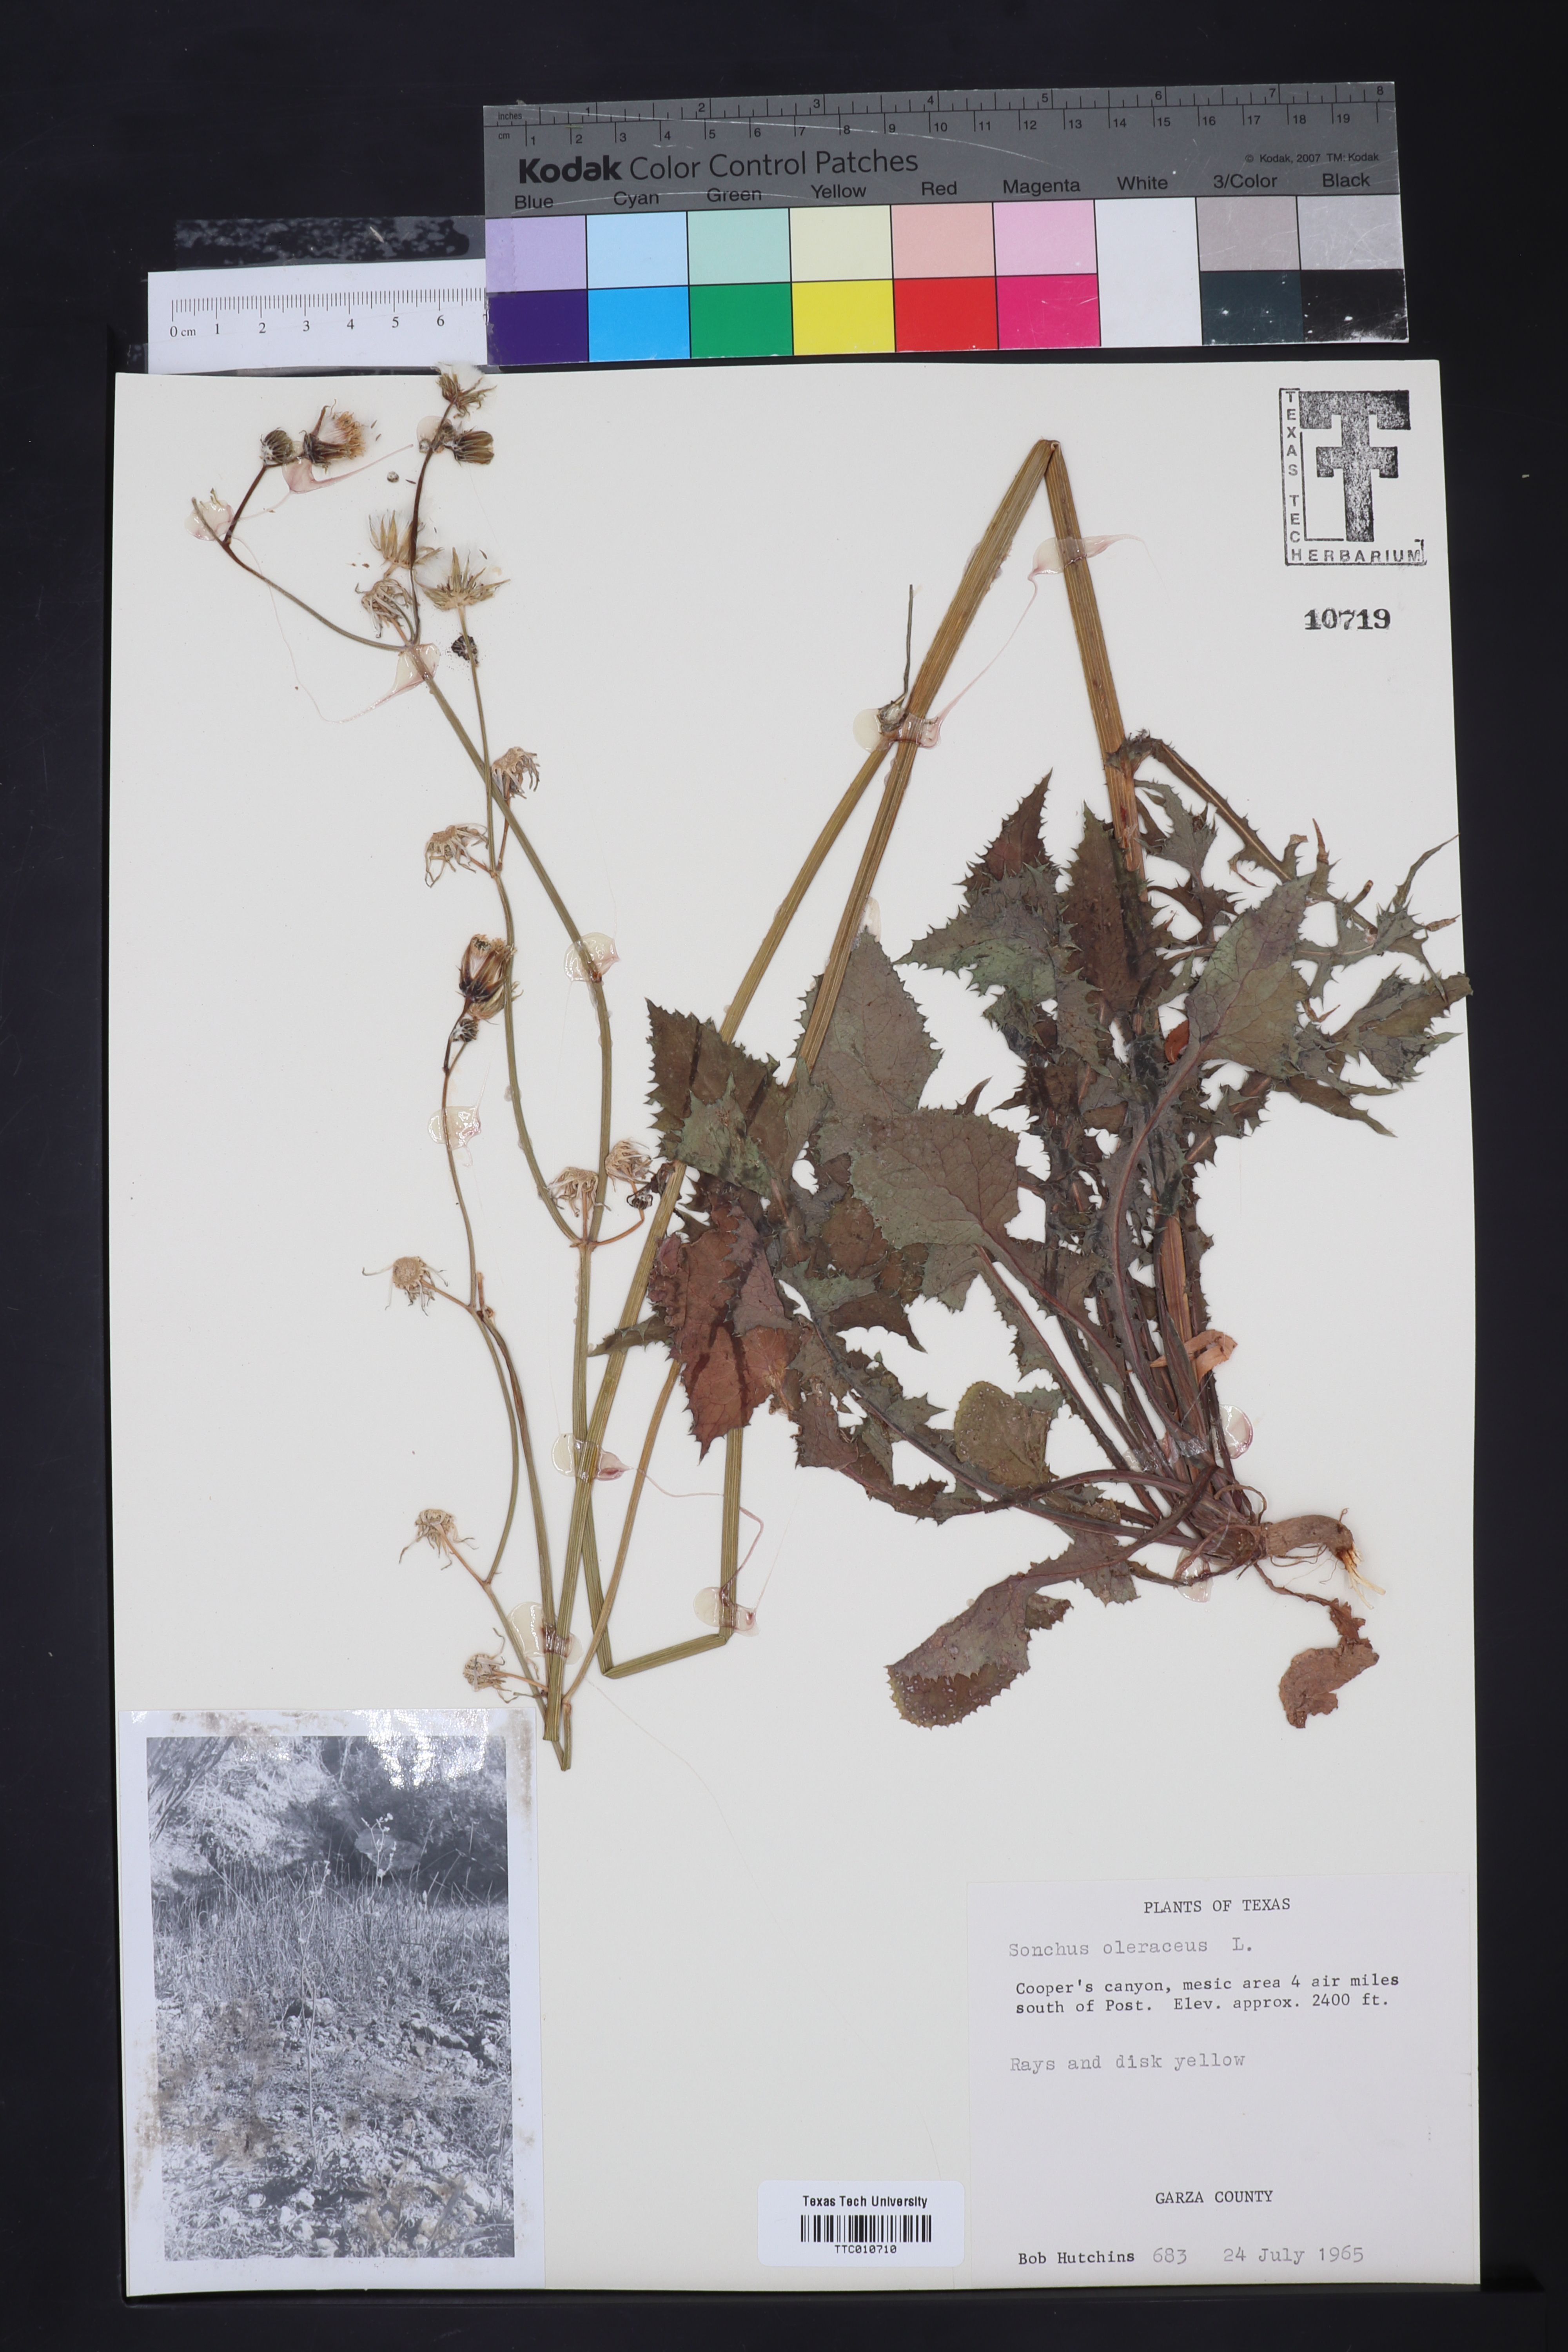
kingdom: Plantae
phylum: Tracheophyta
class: Magnoliopsida
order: Asterales
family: Asteraceae
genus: Sonchus
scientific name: Sonchus oleraceus
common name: Common sowthistle
